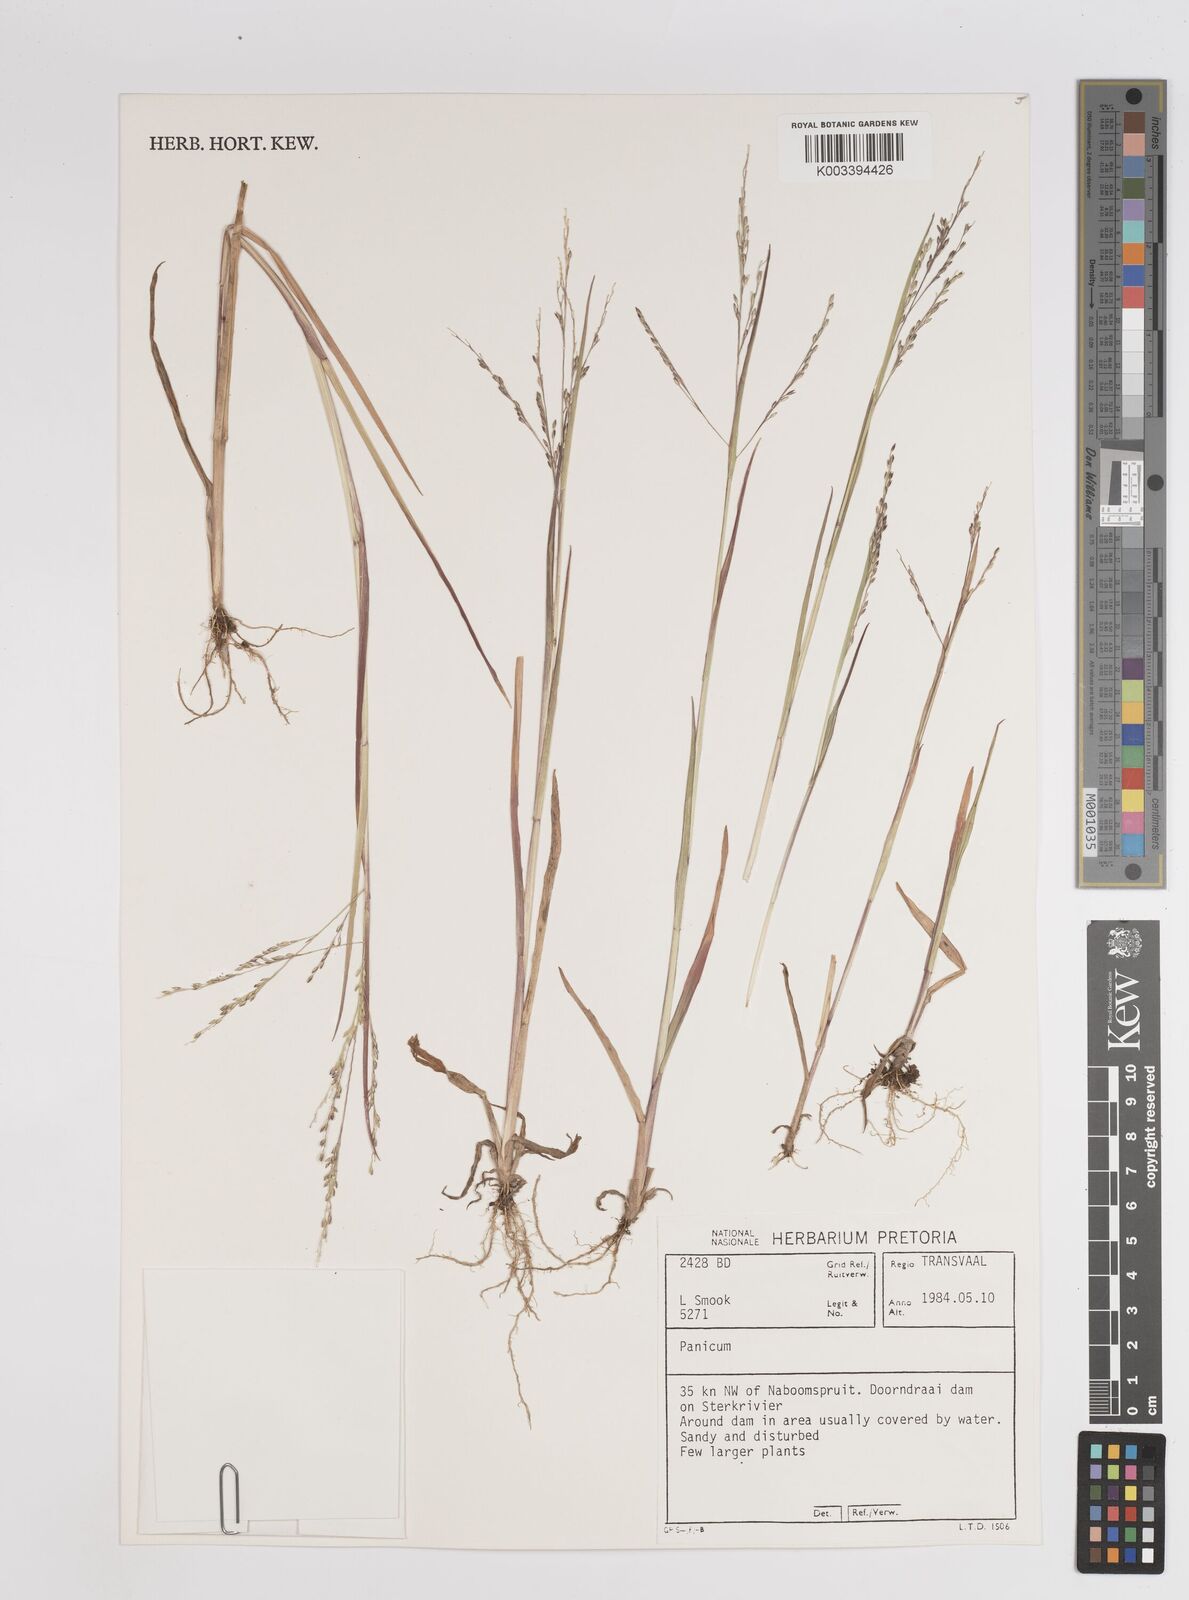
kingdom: Plantae
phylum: Tracheophyta
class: Liliopsida
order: Poales
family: Poaceae
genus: Panicum
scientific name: Panicum
